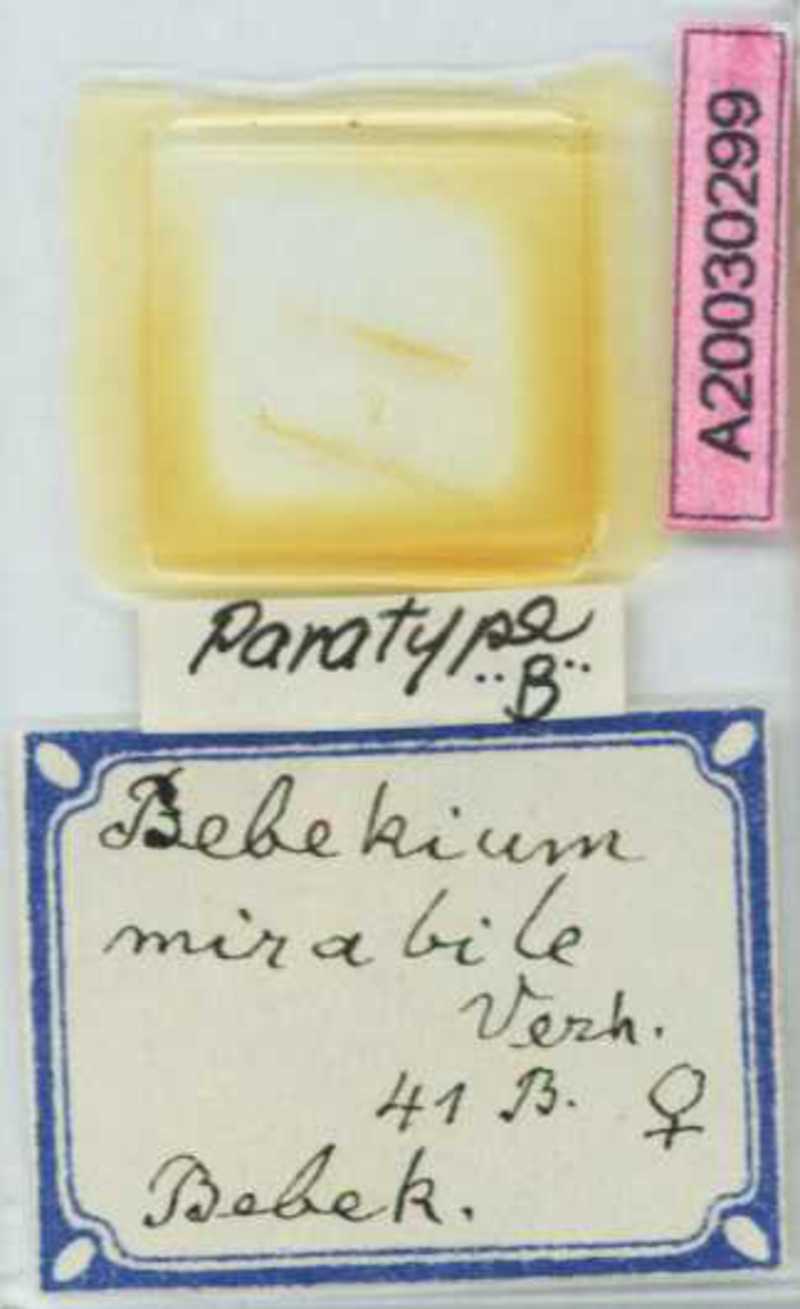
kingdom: Animalia
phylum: Arthropoda
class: Chilopoda
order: Geophilomorpha
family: Geophilidae
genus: Bebekium
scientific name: Bebekium mirabile
